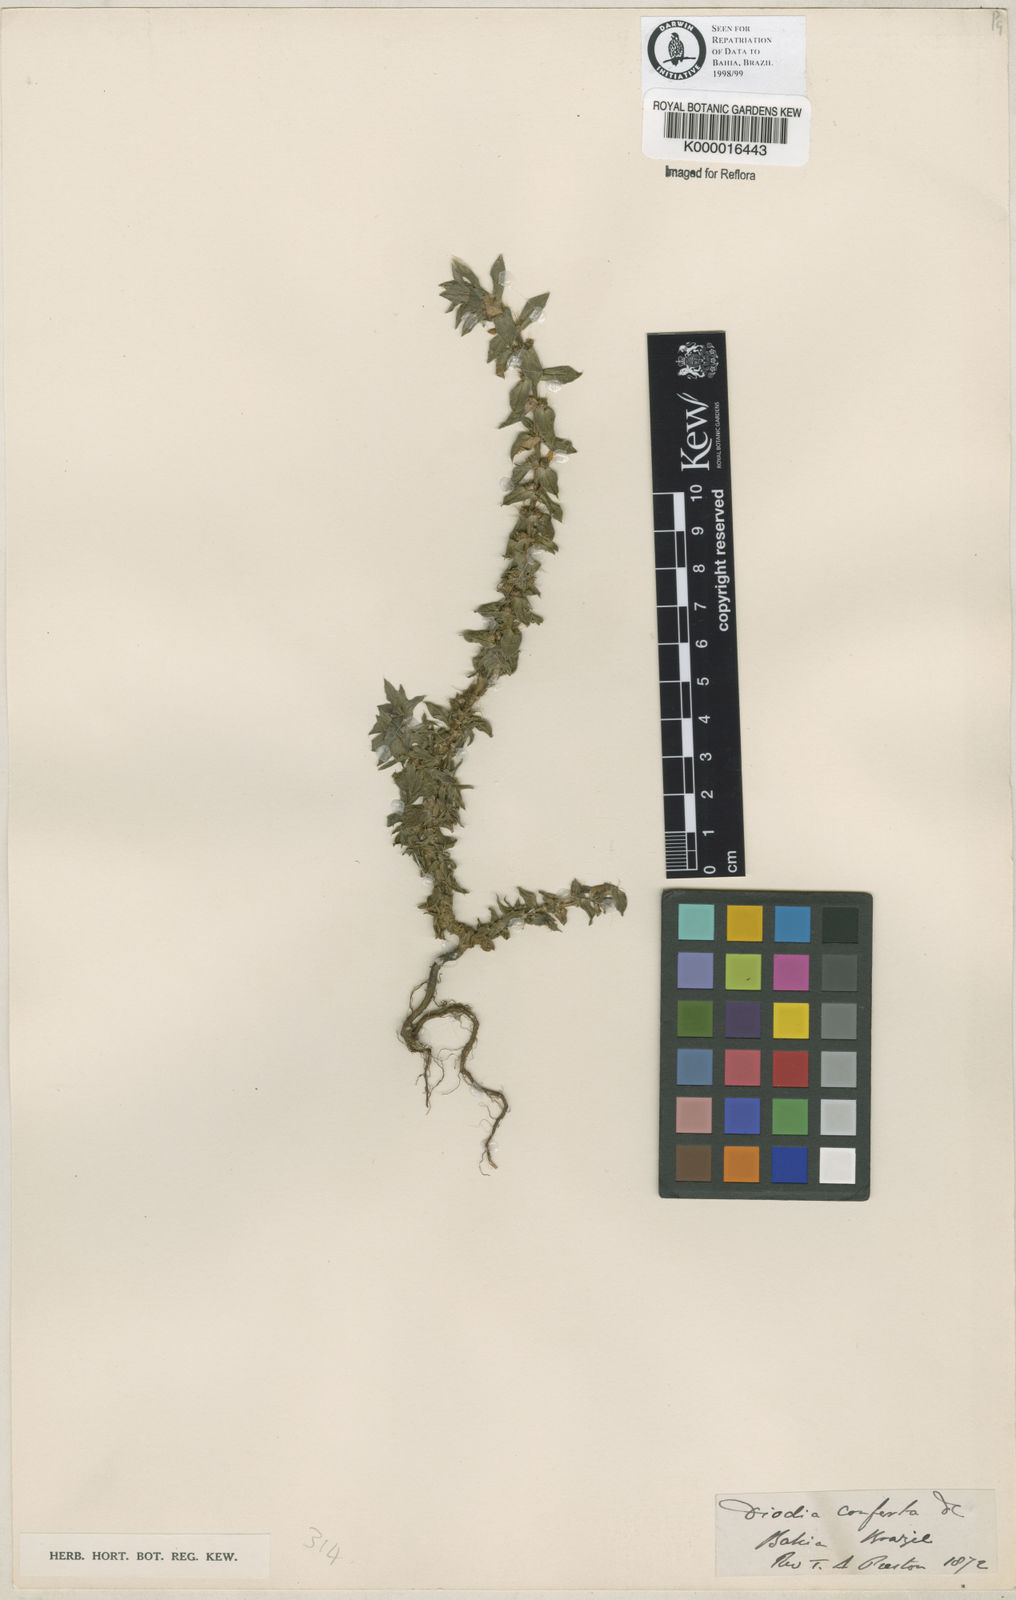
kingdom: Plantae
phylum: Tracheophyta
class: Magnoliopsida
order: Gentianales
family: Rubiaceae
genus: Hexasepalum
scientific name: Hexasepalum apiculatum
